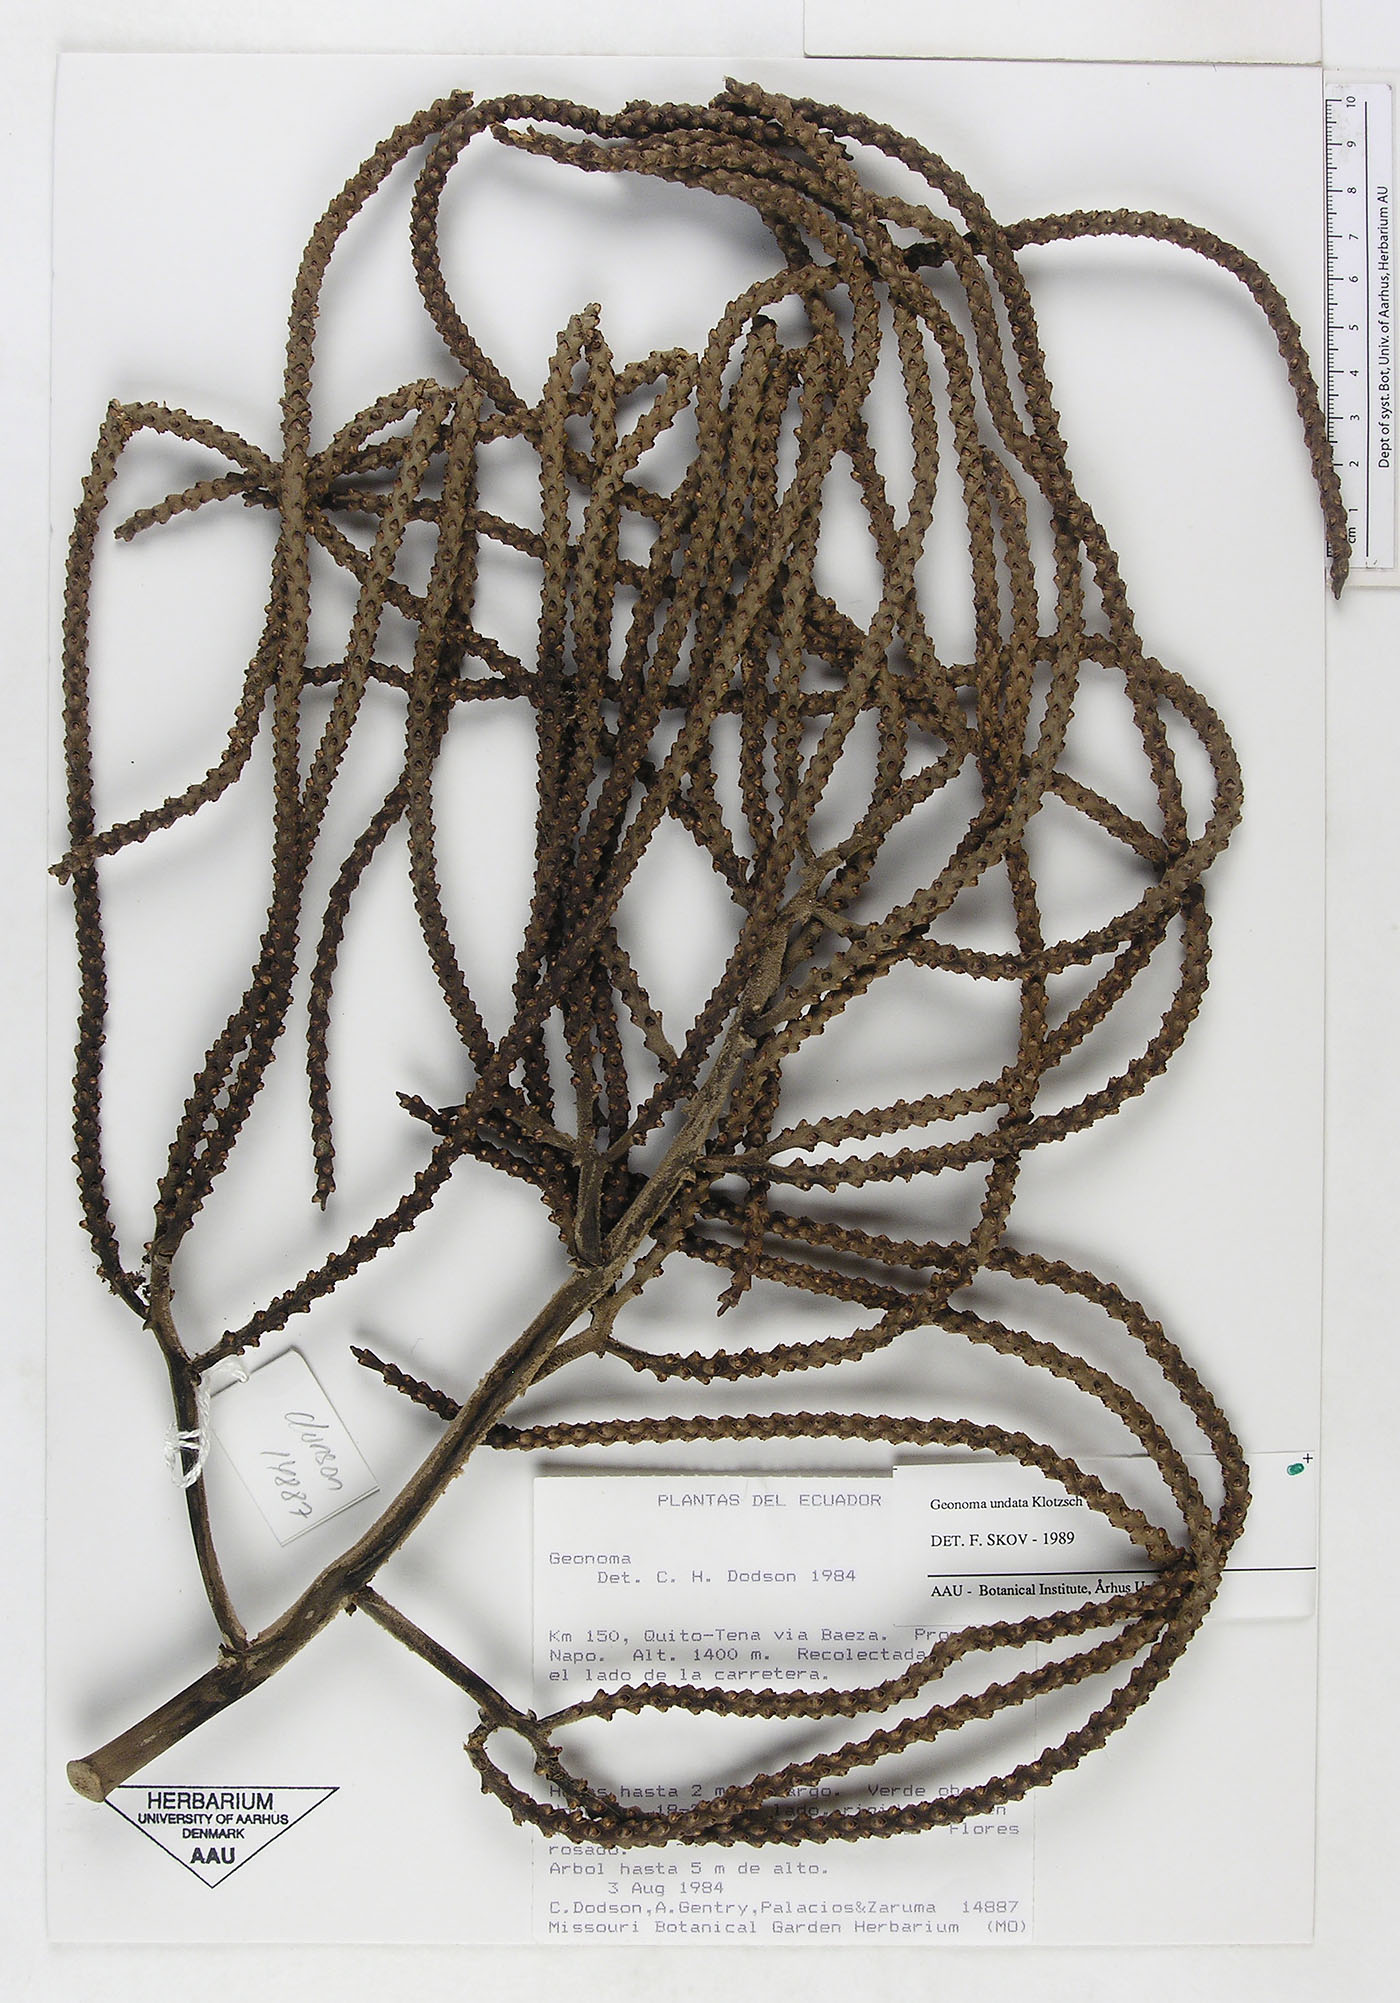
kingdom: Plantae
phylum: Tracheophyta
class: Liliopsida
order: Arecales
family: Arecaceae
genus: Geonoma
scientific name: Geonoma undata
